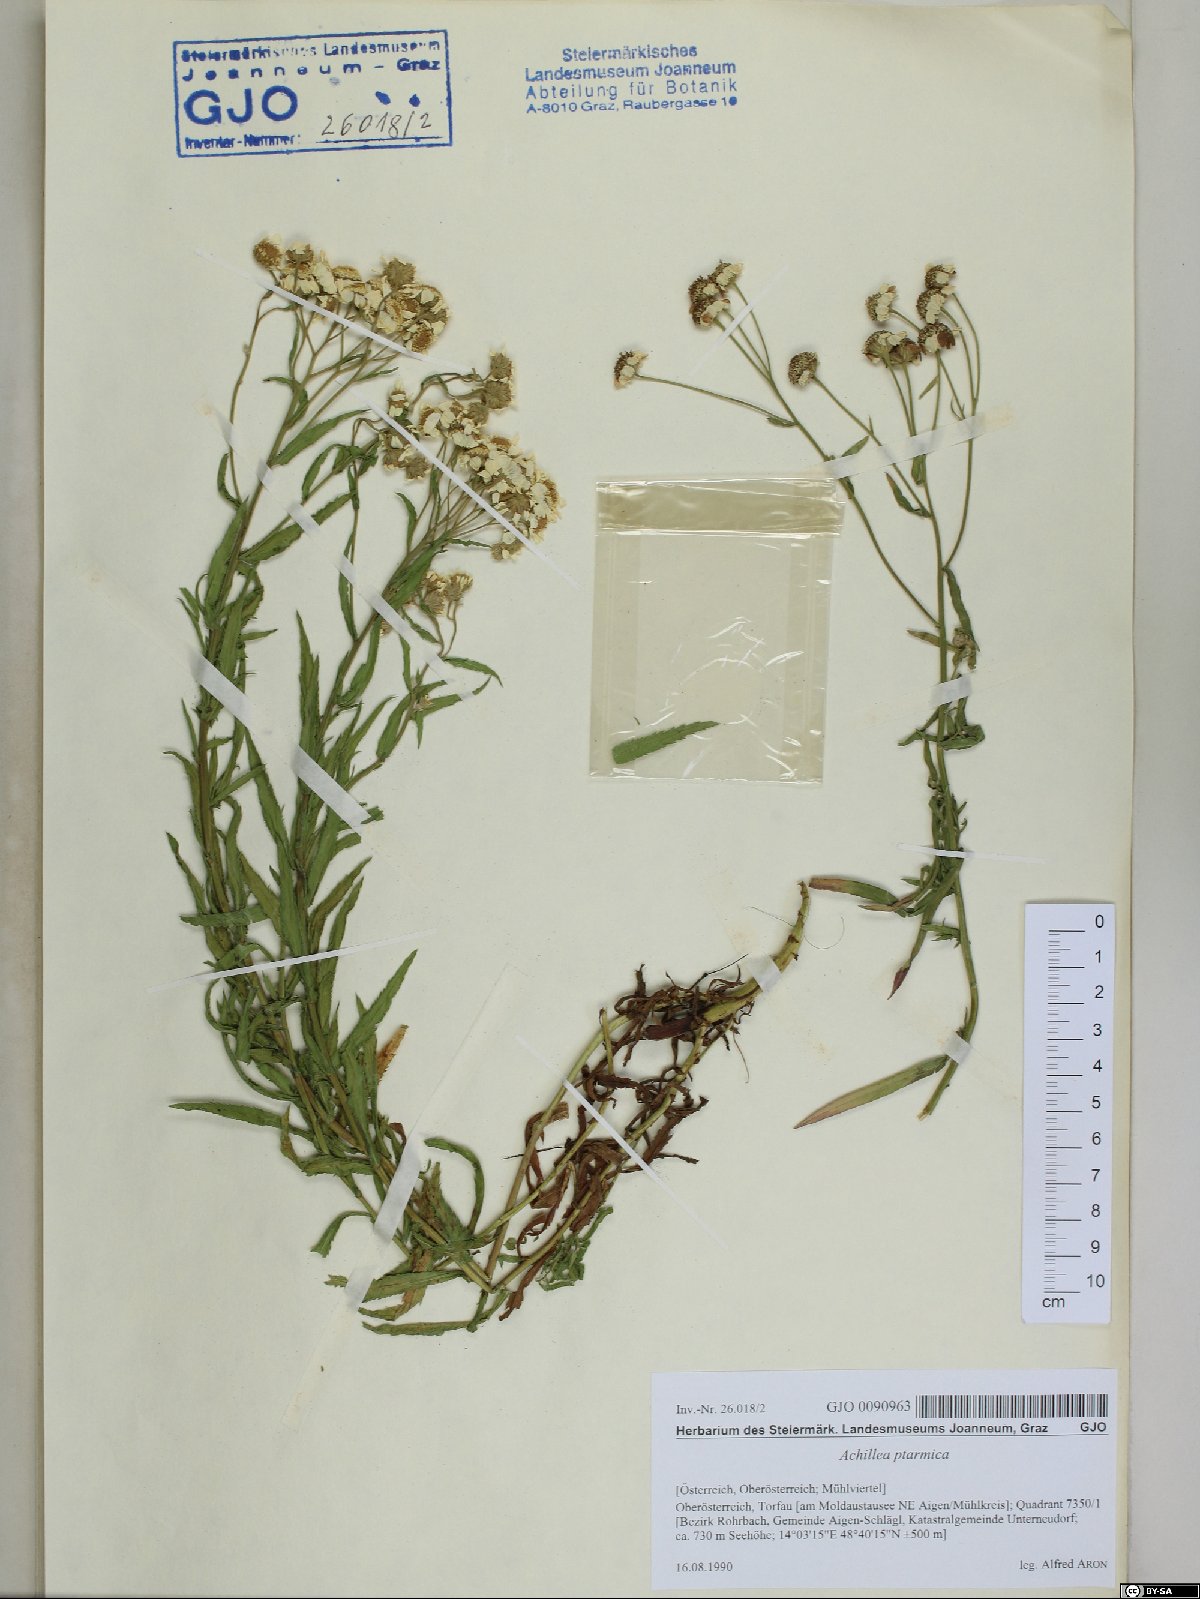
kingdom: Plantae
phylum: Tracheophyta
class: Magnoliopsida
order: Asterales
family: Asteraceae
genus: Achillea
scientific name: Achillea ptarmica
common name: Sneezeweed
